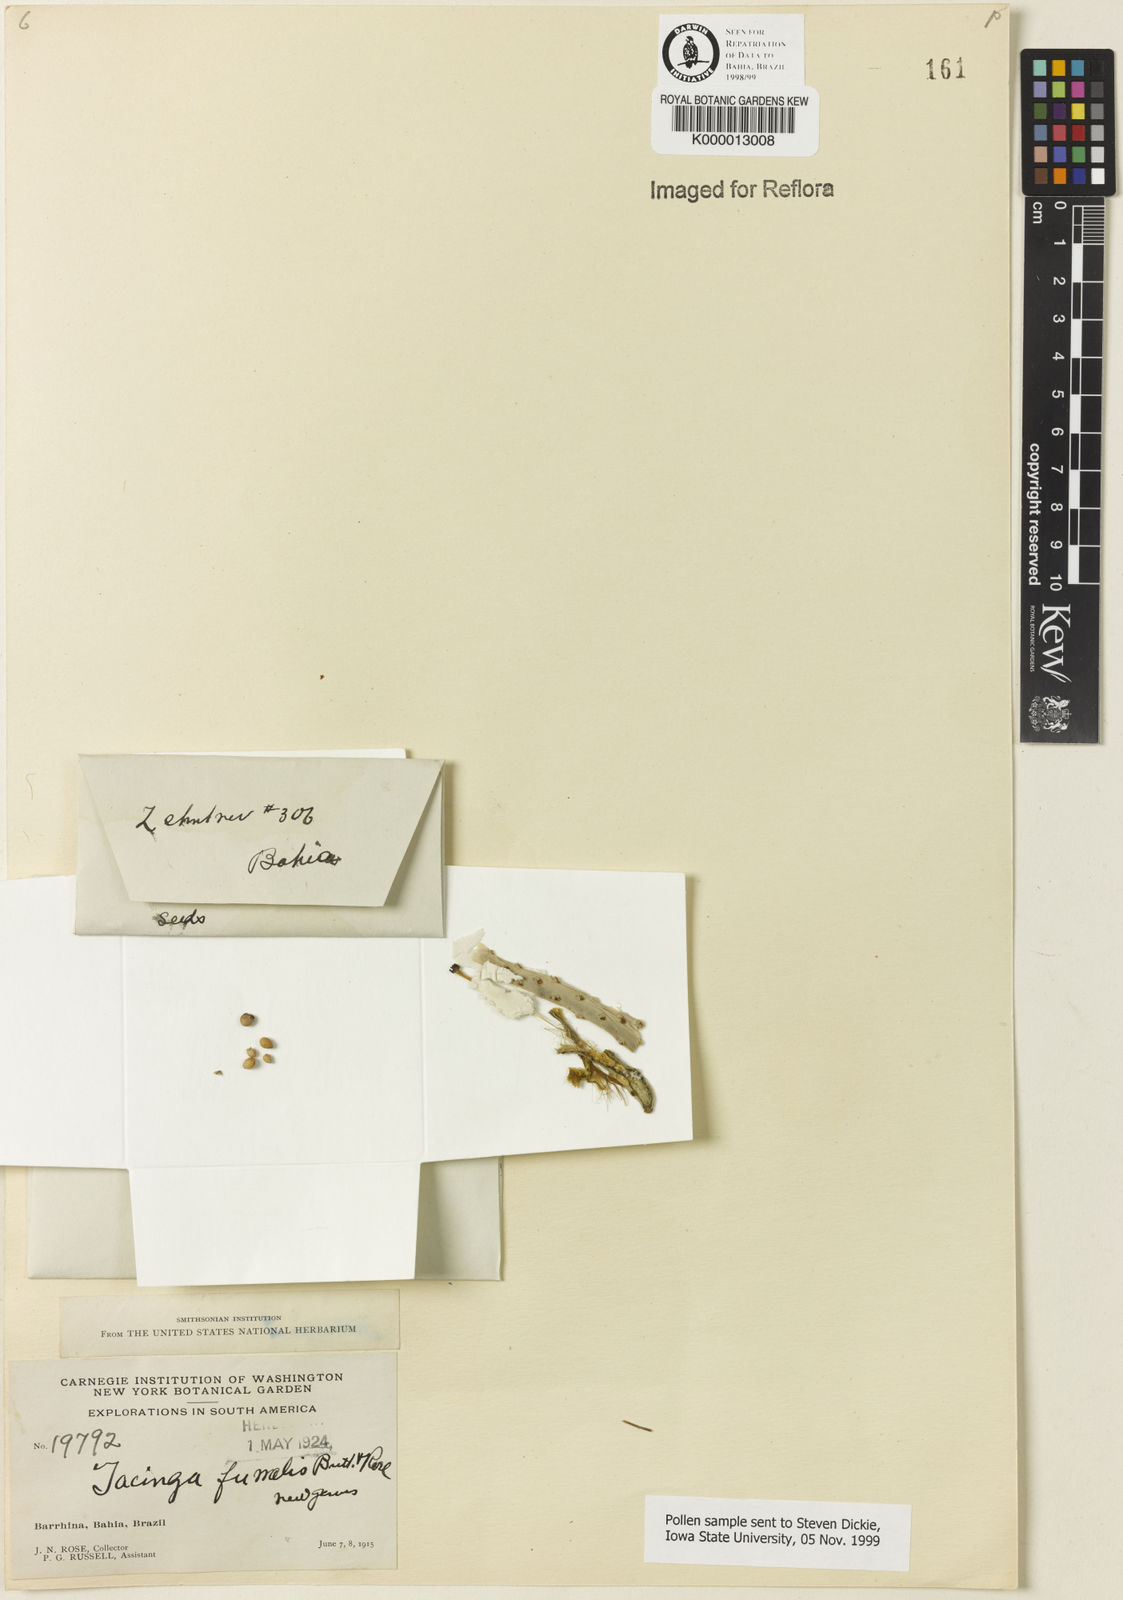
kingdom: Plantae
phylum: Tracheophyta
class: Magnoliopsida
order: Caryophyllales
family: Cactaceae
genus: Tacinga
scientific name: Tacinga funalis
